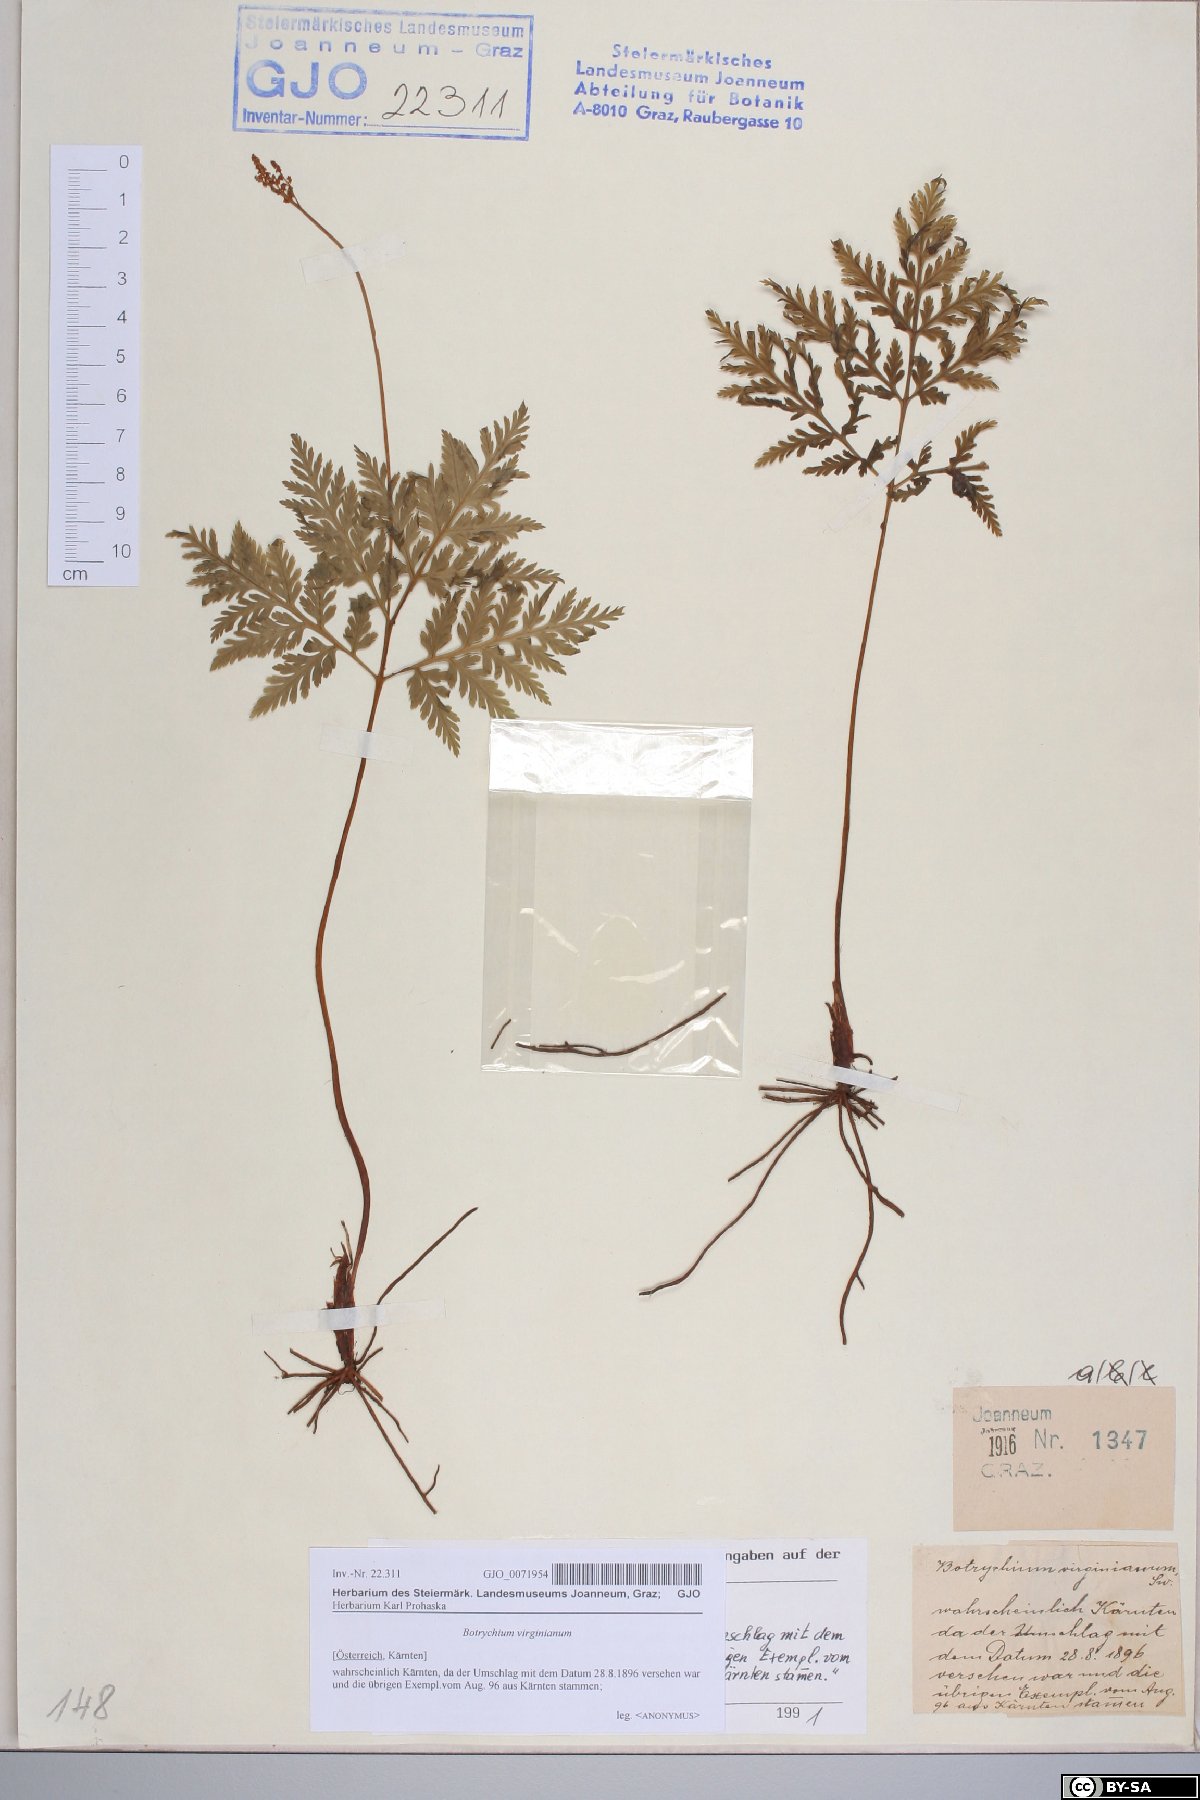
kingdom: Plantae
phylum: Tracheophyta
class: Polypodiopsida
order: Ophioglossales
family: Ophioglossaceae
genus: Botrypus
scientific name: Botrypus virginianus
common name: Common grapefern
